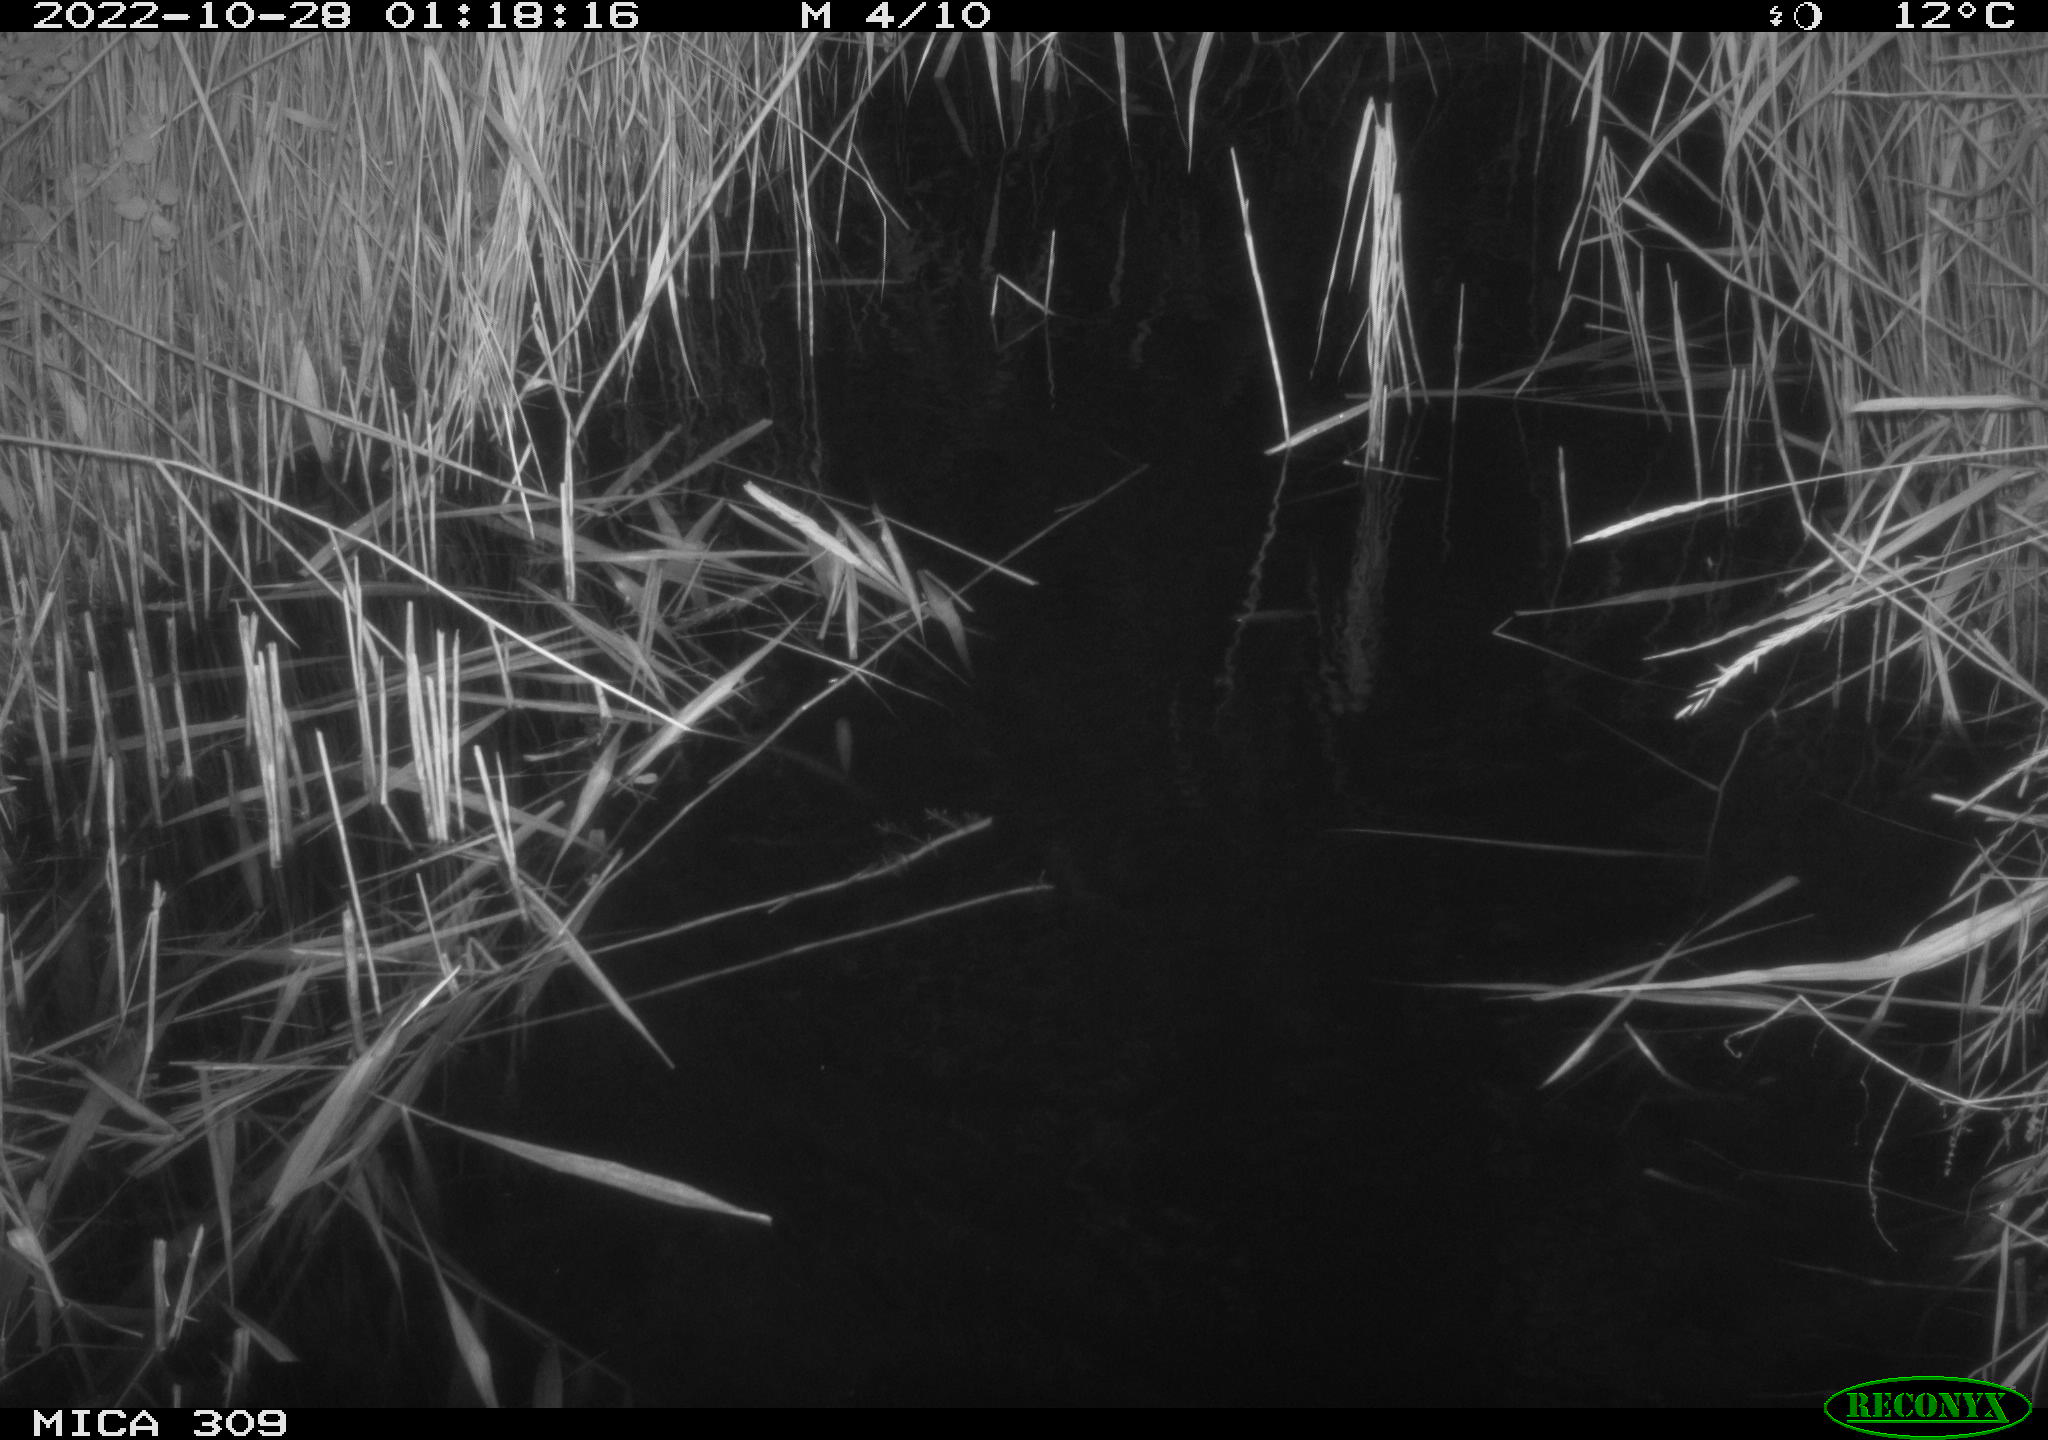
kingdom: Animalia
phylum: Chordata
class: Mammalia
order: Rodentia
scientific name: Rodentia
